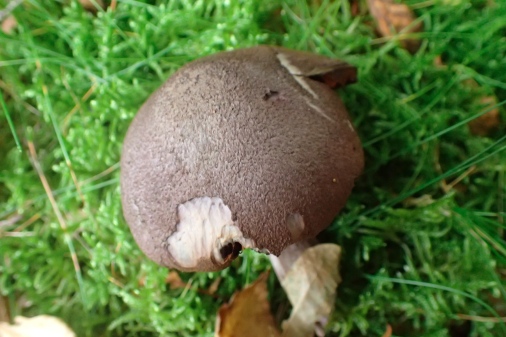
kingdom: Fungi
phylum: Basidiomycota
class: Agaricomycetes
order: Agaricales
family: Cortinariaceae
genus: Cortinarius
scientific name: Cortinarius violaceus
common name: mørkviolet slørhat
